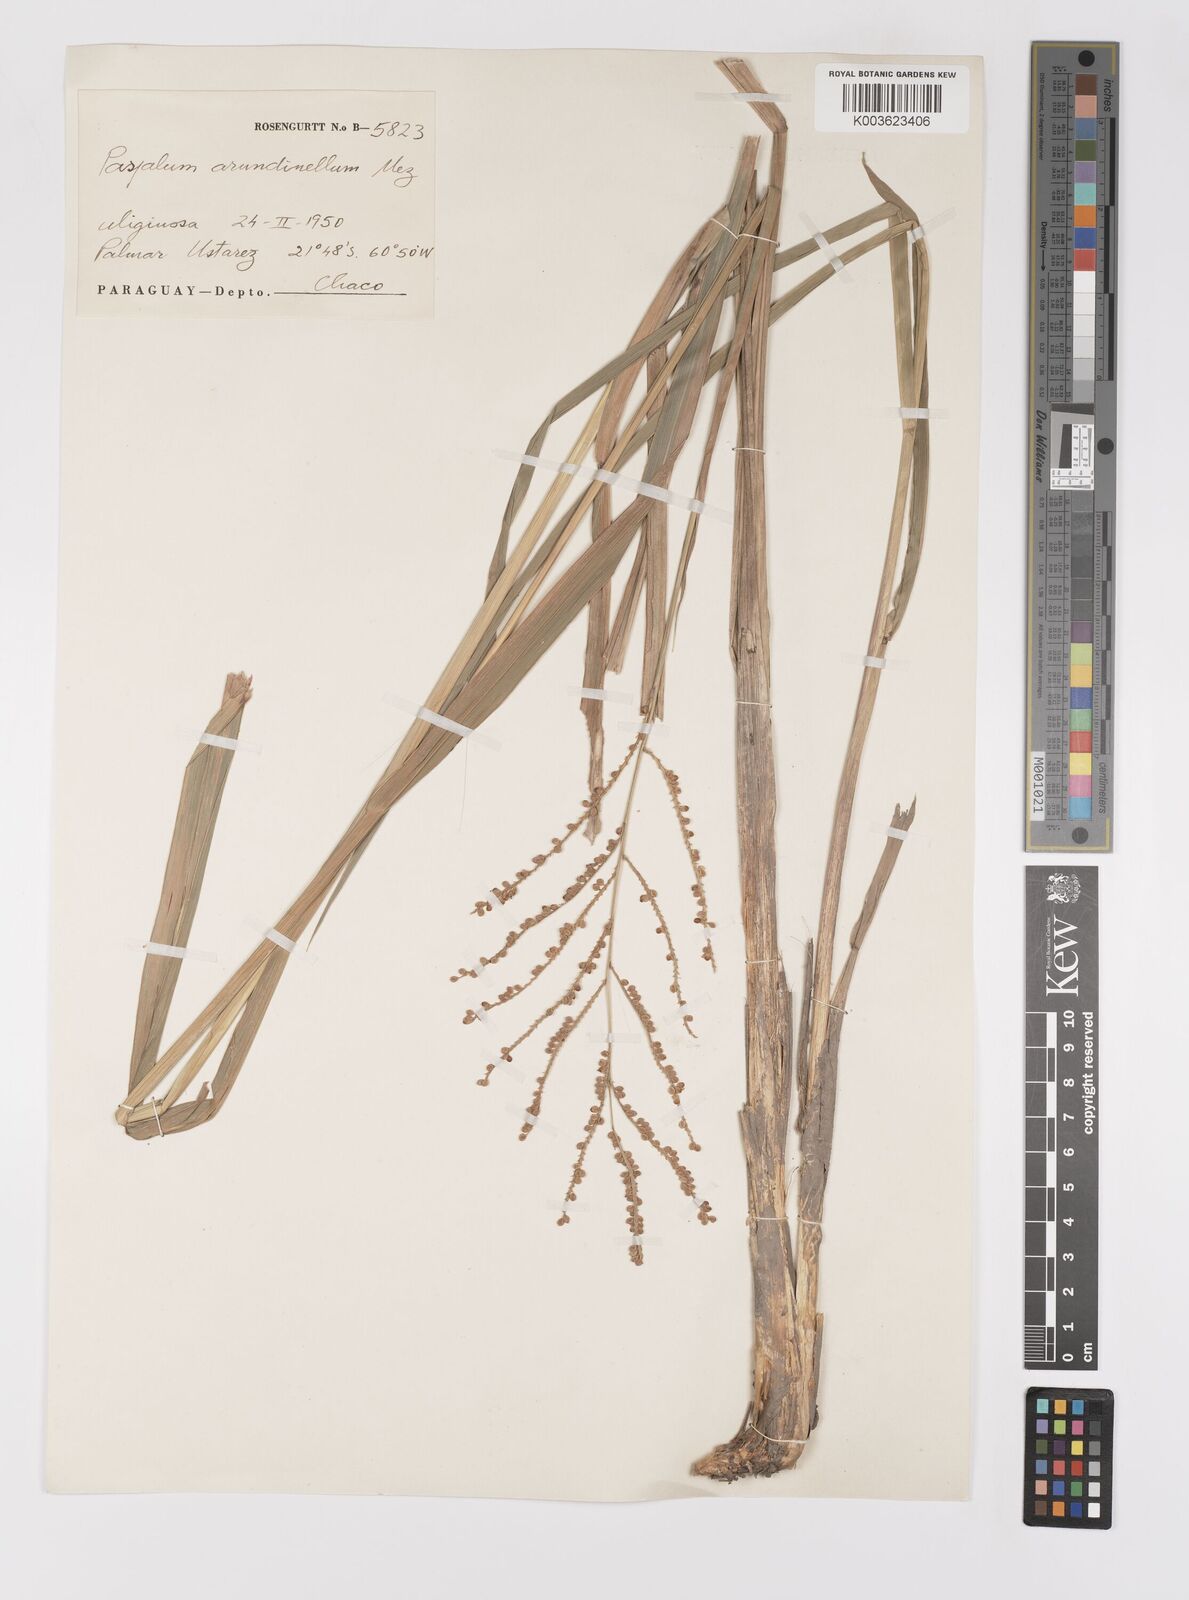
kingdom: Plantae
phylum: Tracheophyta
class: Liliopsida
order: Poales
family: Poaceae
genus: Paspalum
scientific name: Paspalum arundinellum
